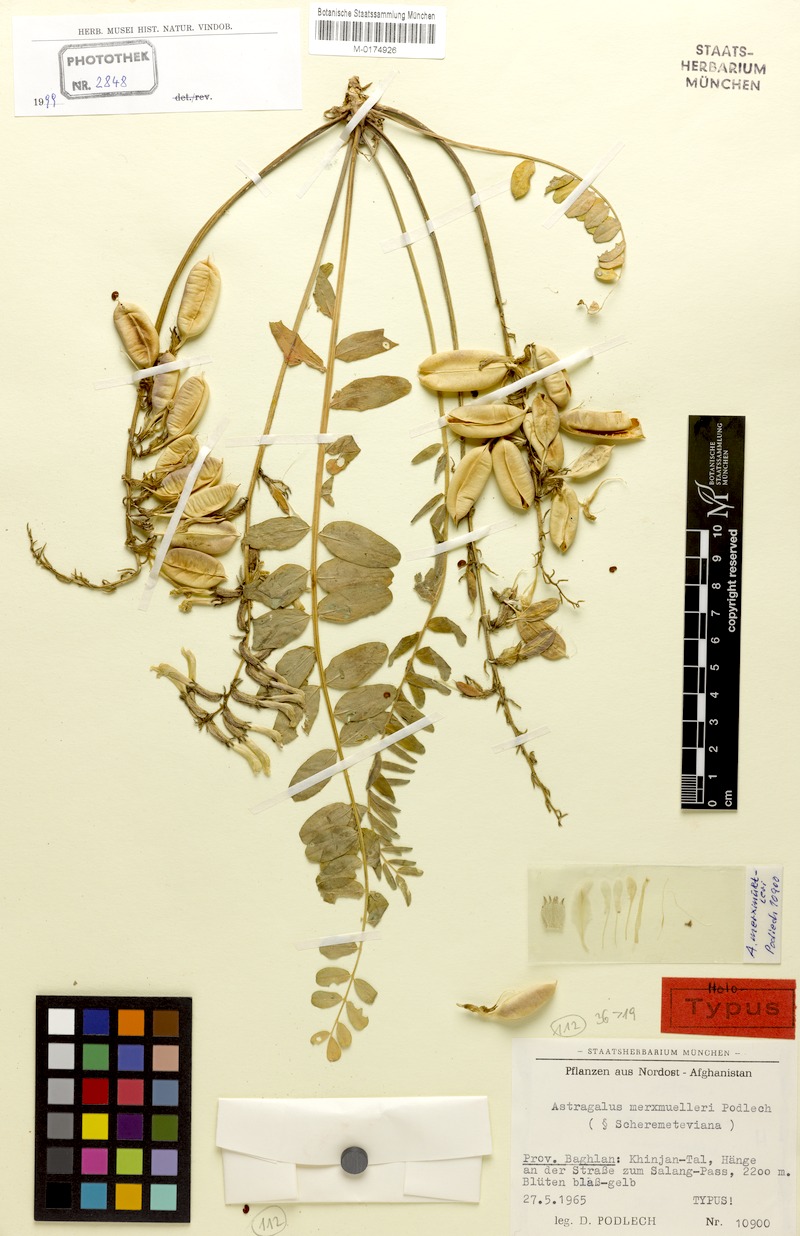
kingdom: Plantae
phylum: Tracheophyta
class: Magnoliopsida
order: Fabales
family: Fabaceae
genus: Astragalus
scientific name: Astragalus merxmuelleri
